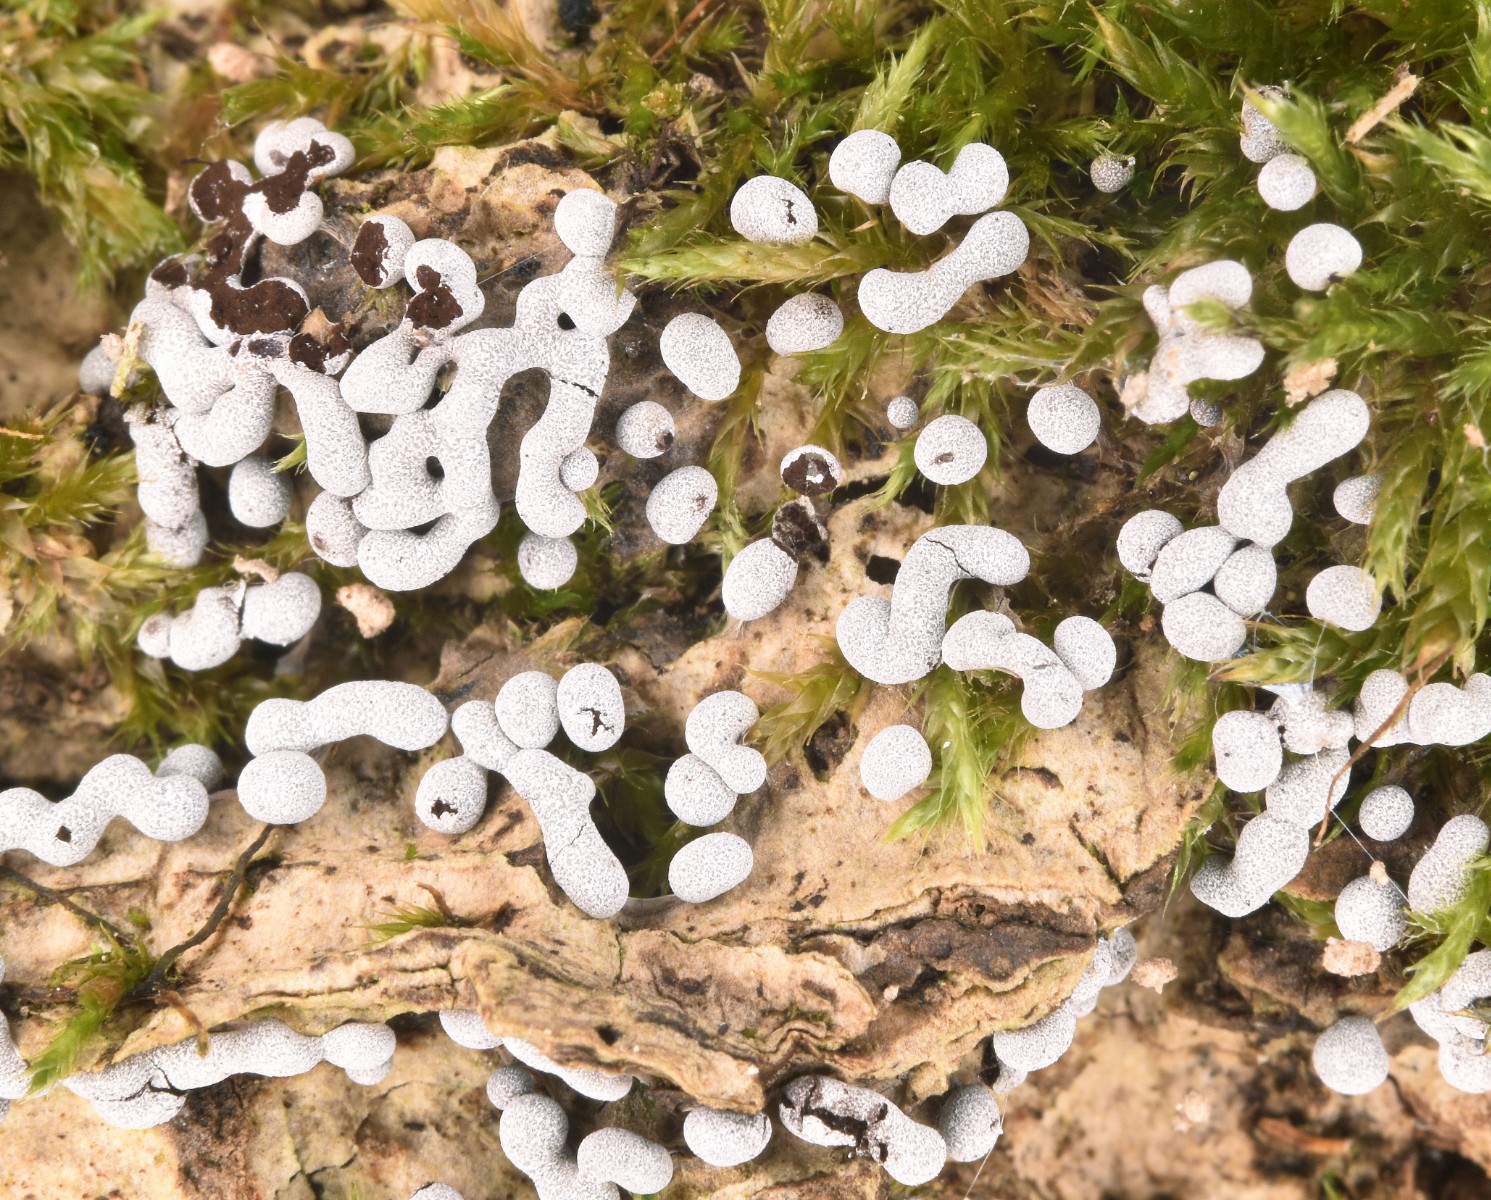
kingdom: Protozoa
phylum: Mycetozoa
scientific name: Mycetozoa
